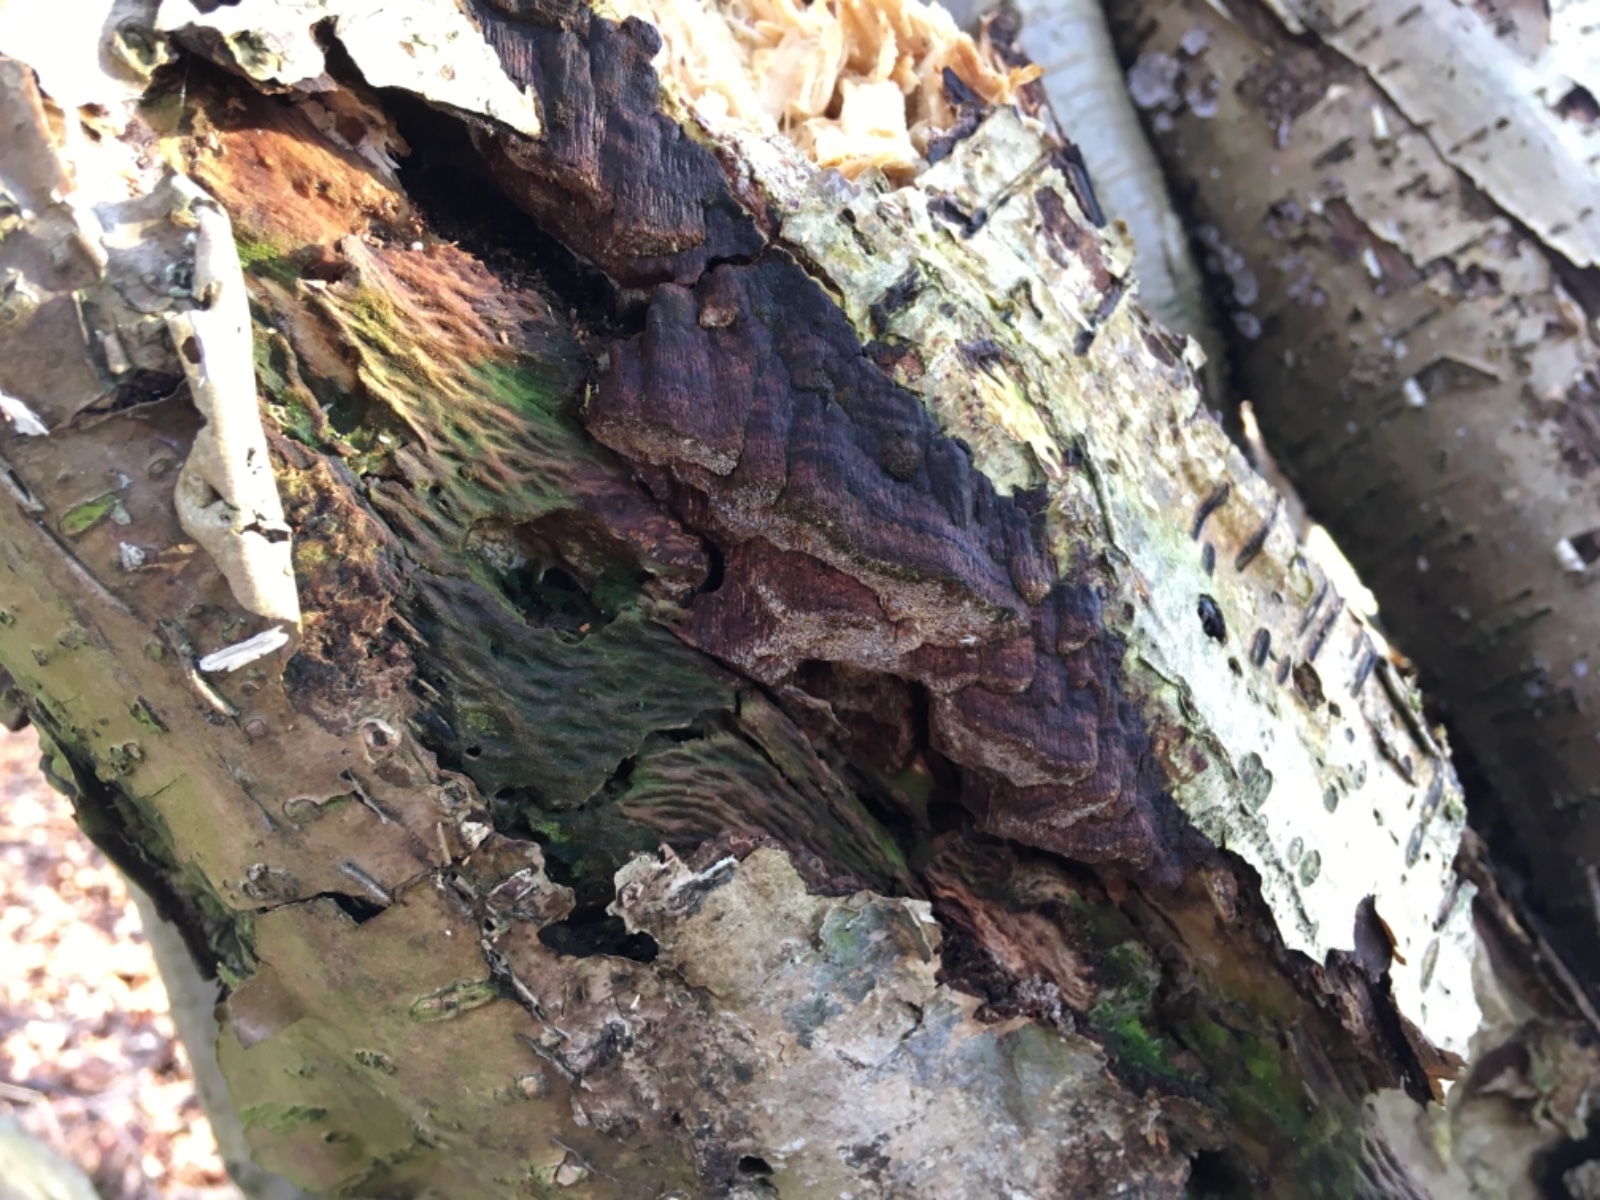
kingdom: Fungi
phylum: Basidiomycota
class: Agaricomycetes
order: Hymenochaetales
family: Hymenochaetaceae
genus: Xanthoporia
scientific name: Xanthoporia radiata
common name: elle-spejlporesvamp
